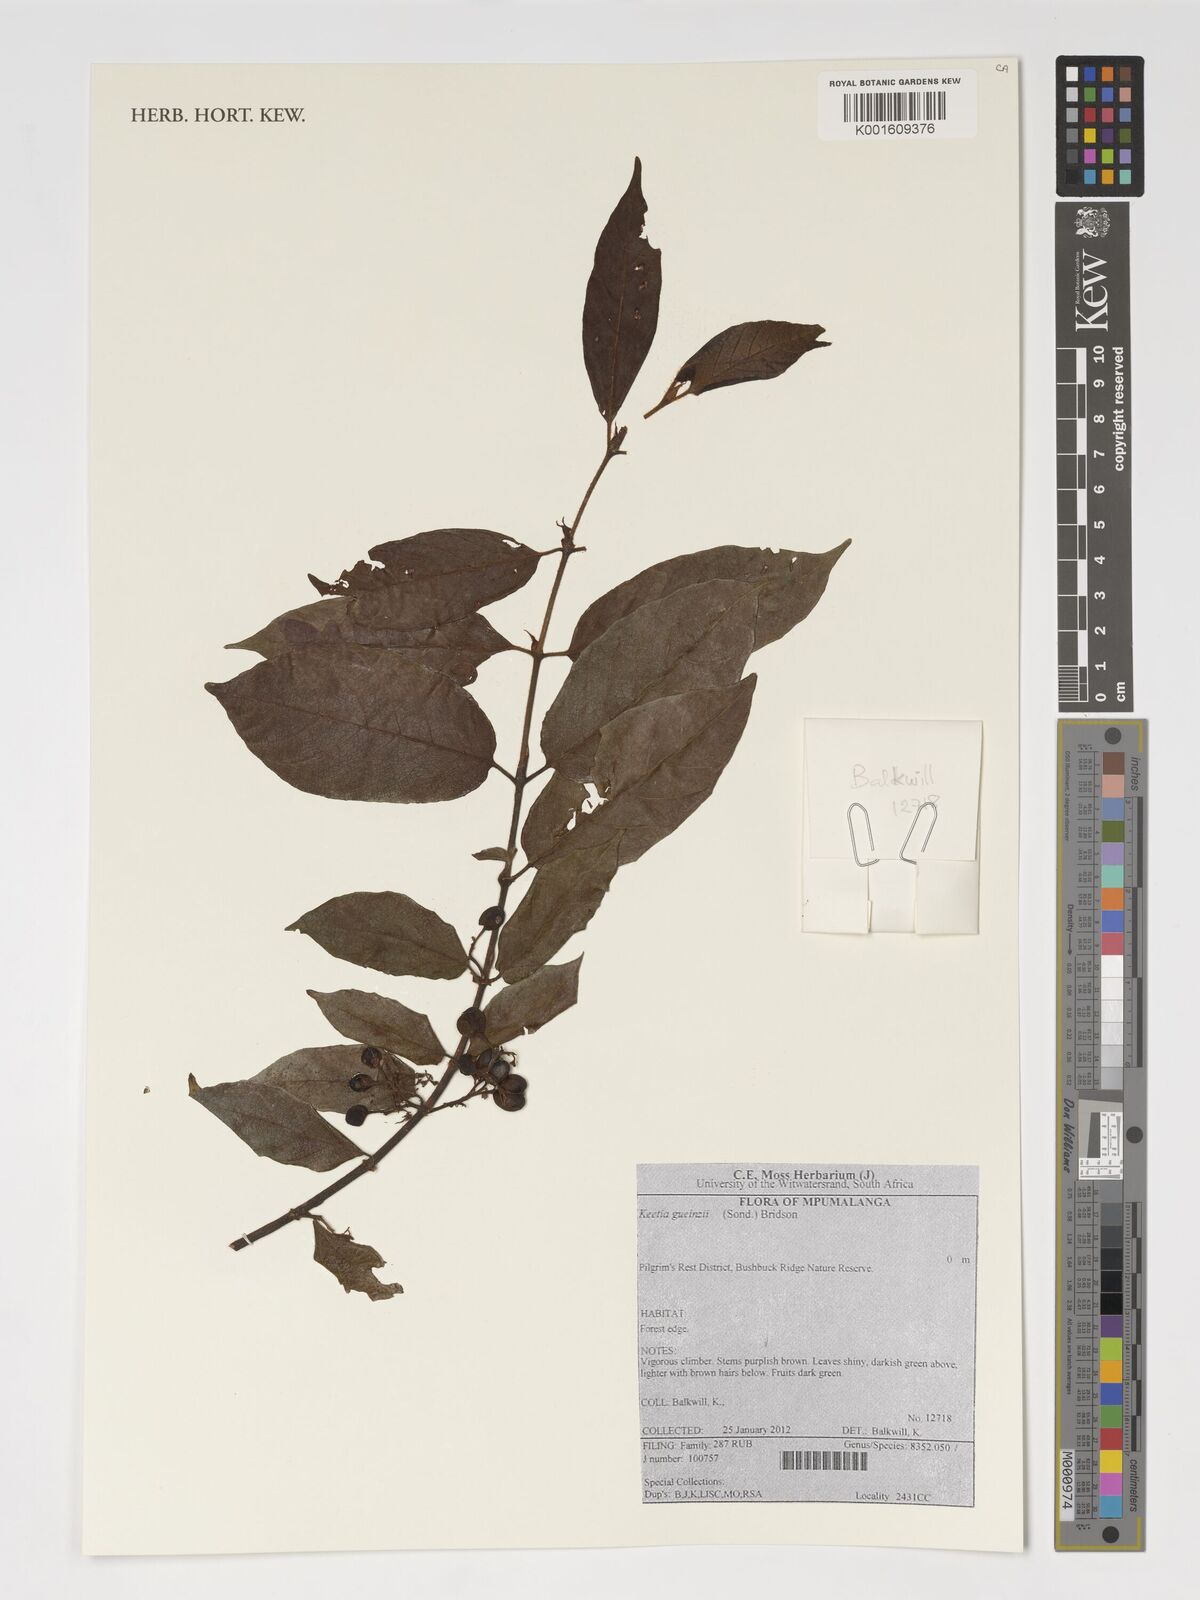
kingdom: Plantae
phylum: Tracheophyta
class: Magnoliopsida
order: Gentianales
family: Rubiaceae
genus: Keetia
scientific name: Keetia gueinzii
